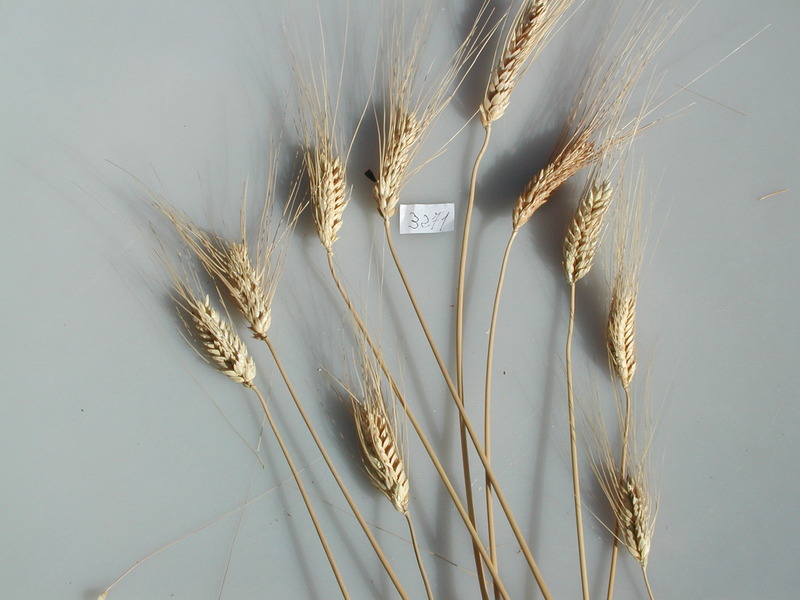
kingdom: Plantae
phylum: Tracheophyta
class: Liliopsida
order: Poales
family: Poaceae
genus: Triticum
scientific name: Triticum turgidum
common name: Wheat
